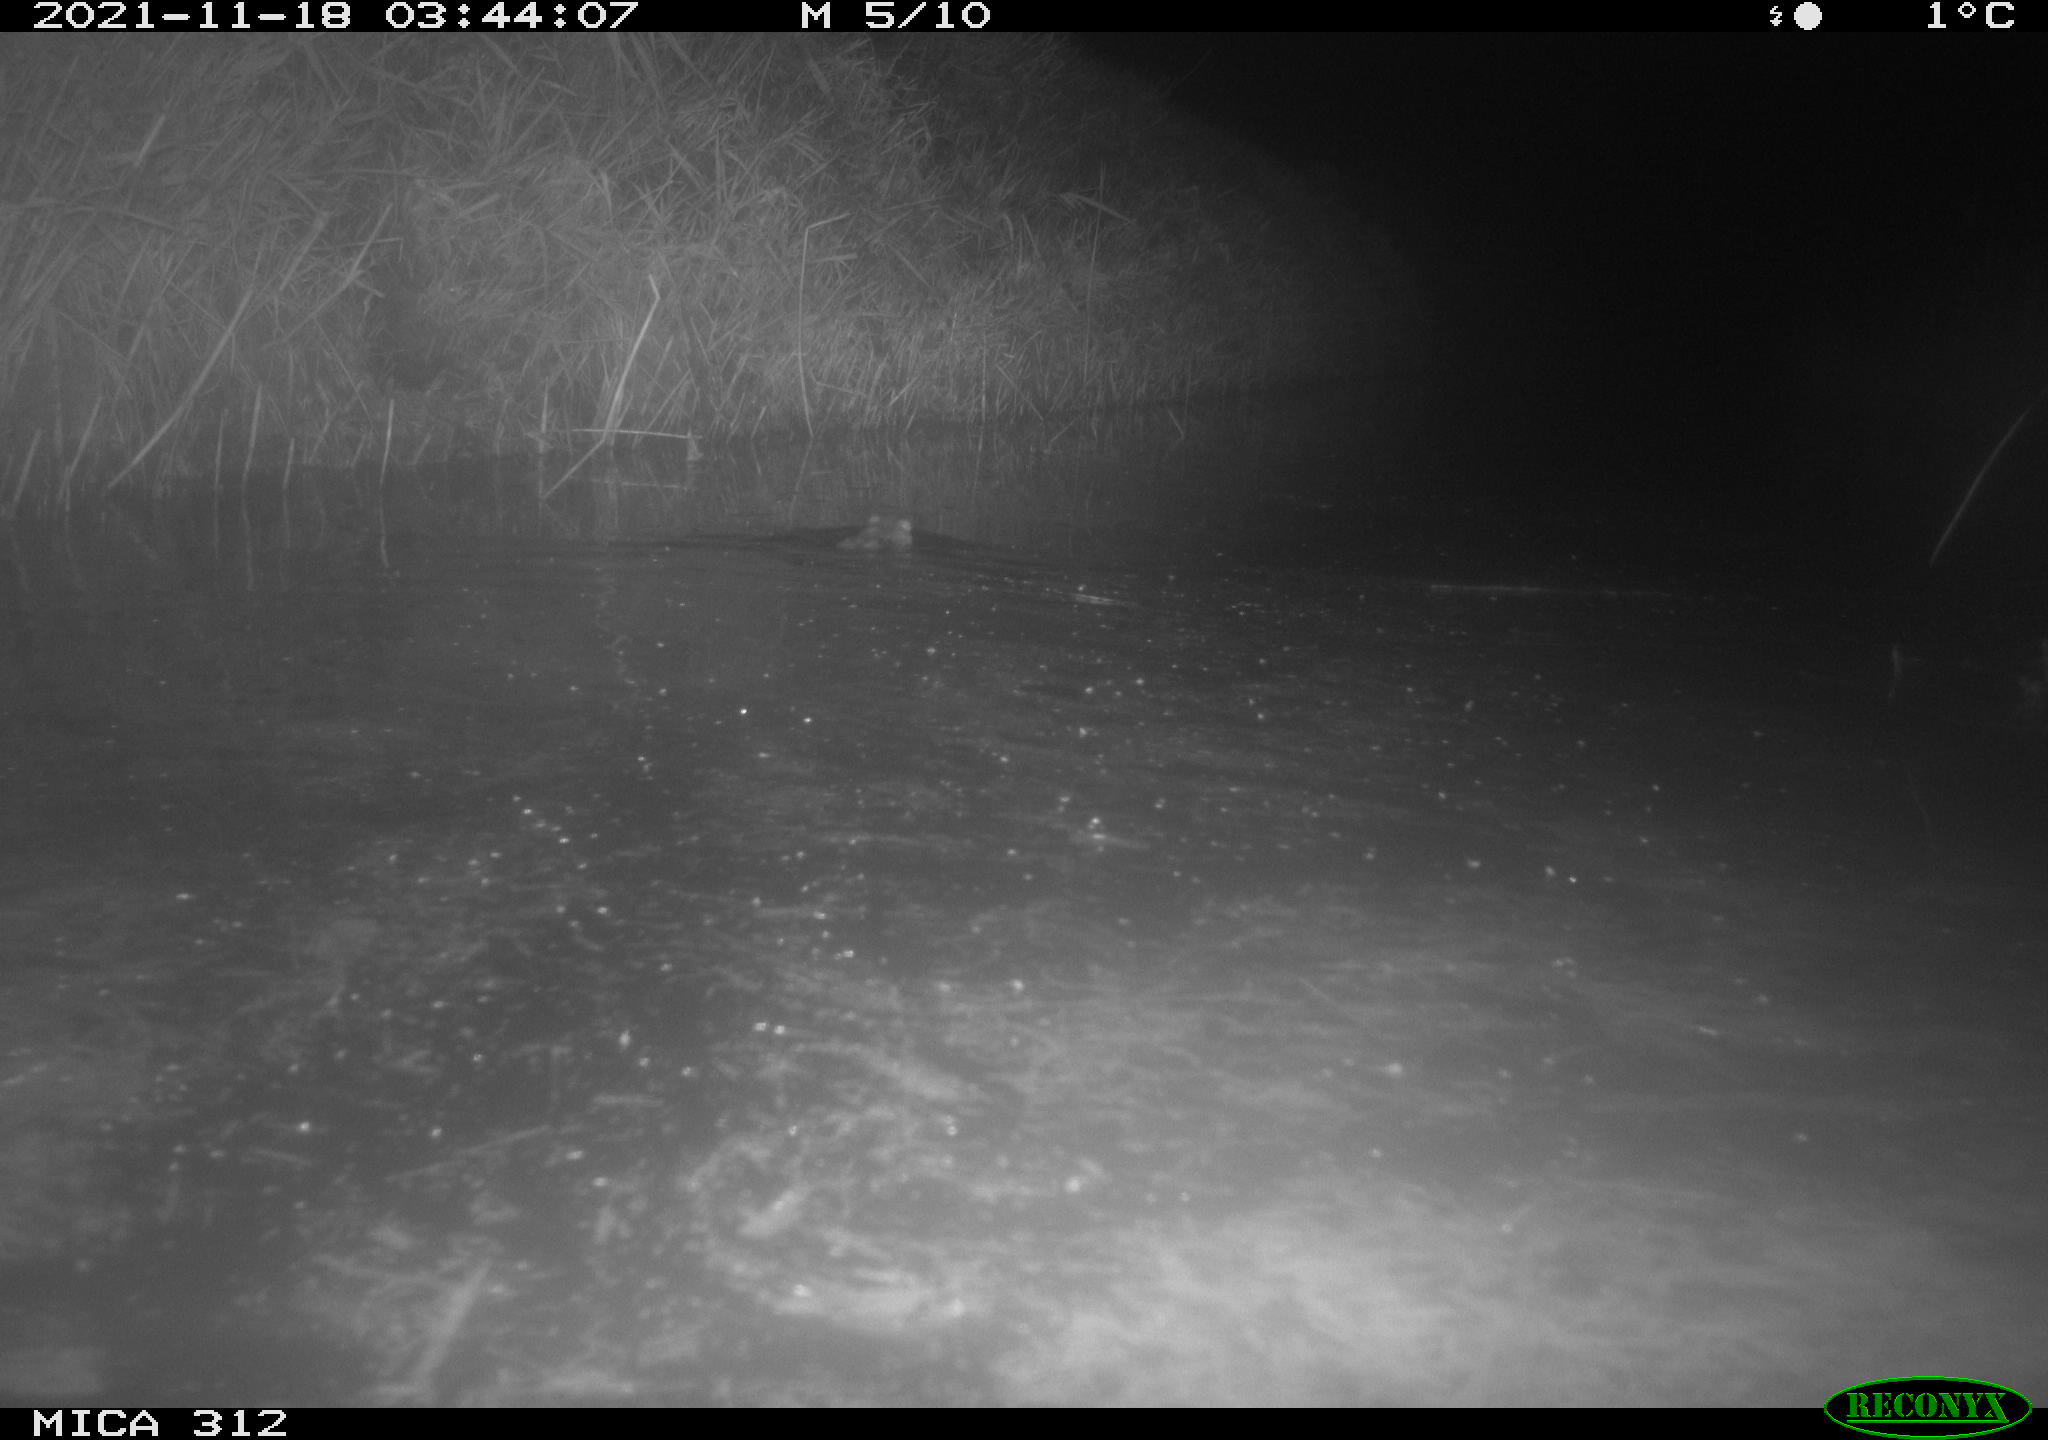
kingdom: Animalia
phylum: Chordata
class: Mammalia
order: Rodentia
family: Muridae
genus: Rattus
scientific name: Rattus norvegicus
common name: Brown rat
